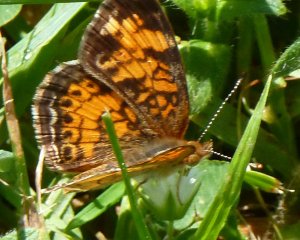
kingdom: Animalia
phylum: Arthropoda
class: Insecta
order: Lepidoptera
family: Nymphalidae
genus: Phyciodes
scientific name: Phyciodes tharos
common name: Northern Crescent
